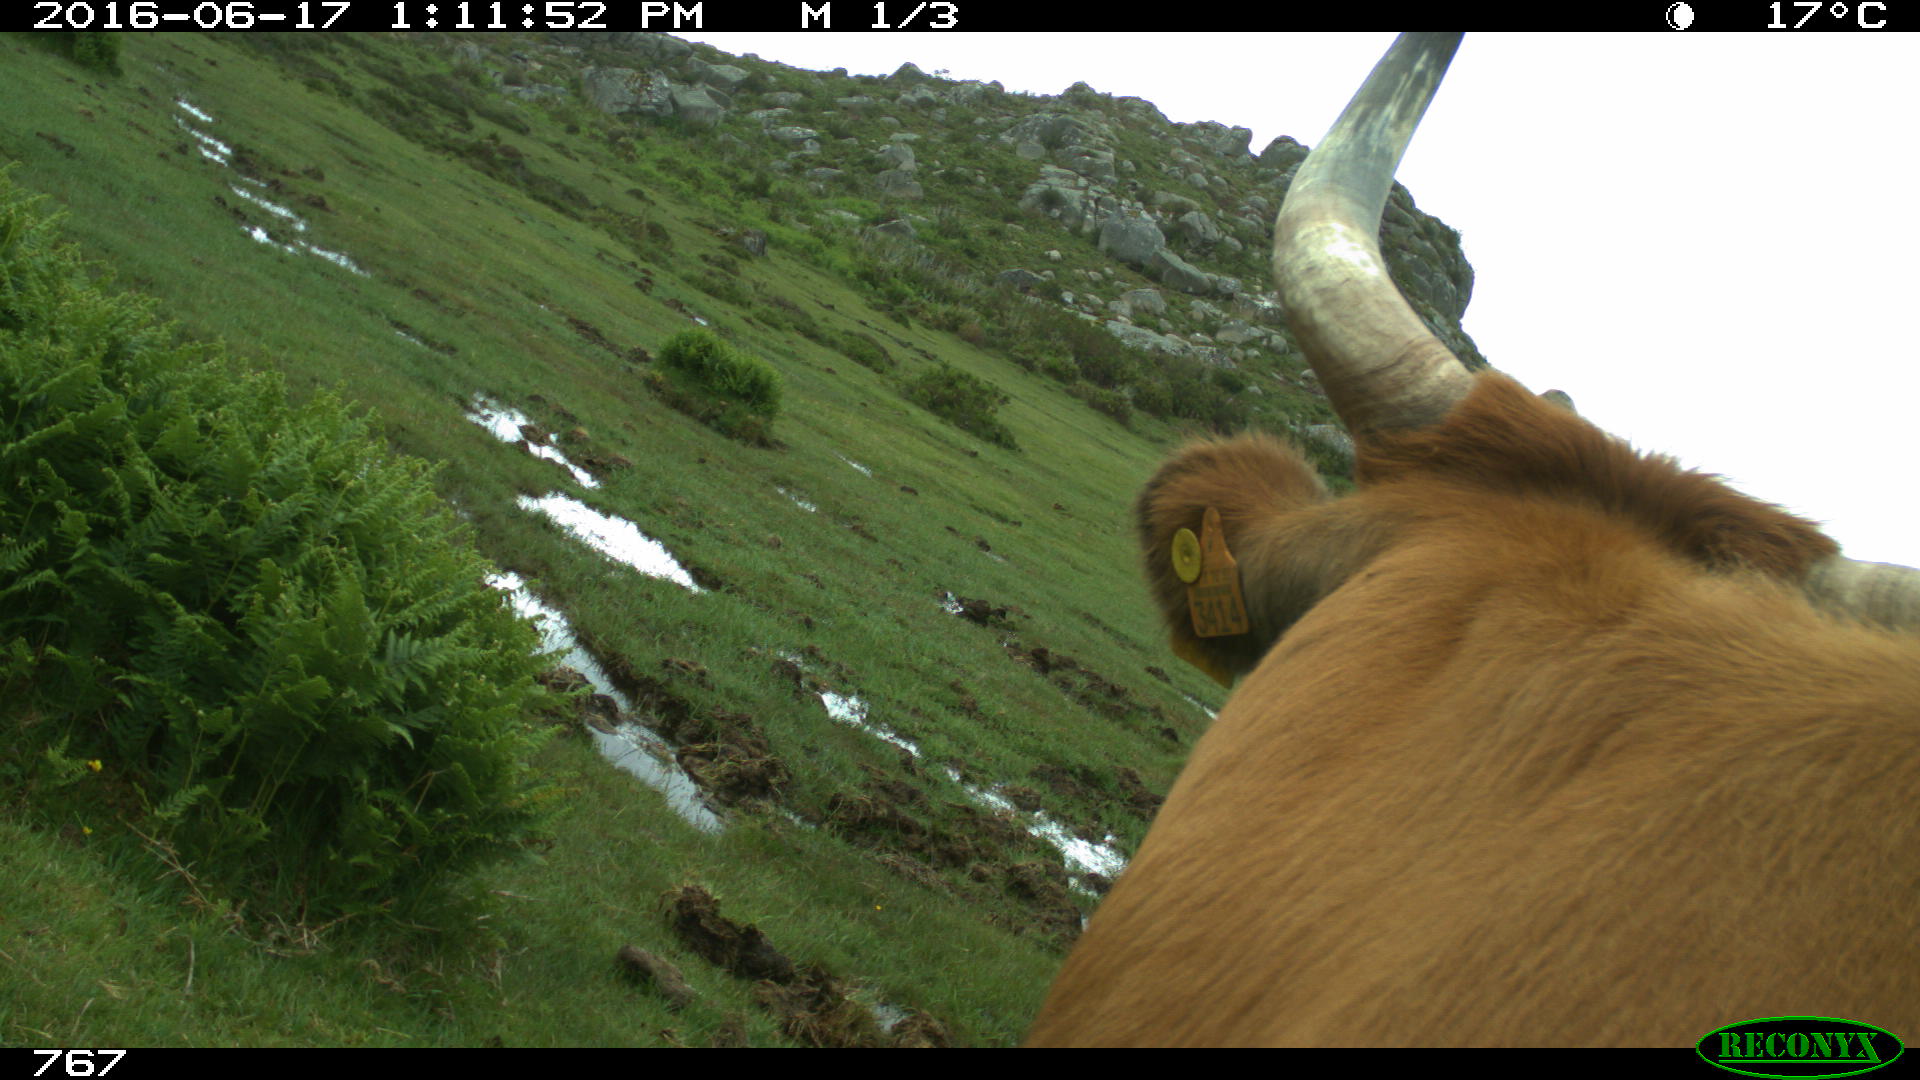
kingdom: Animalia
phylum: Chordata
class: Mammalia
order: Artiodactyla
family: Bovidae
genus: Bos
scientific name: Bos taurus
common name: Domesticated cattle
